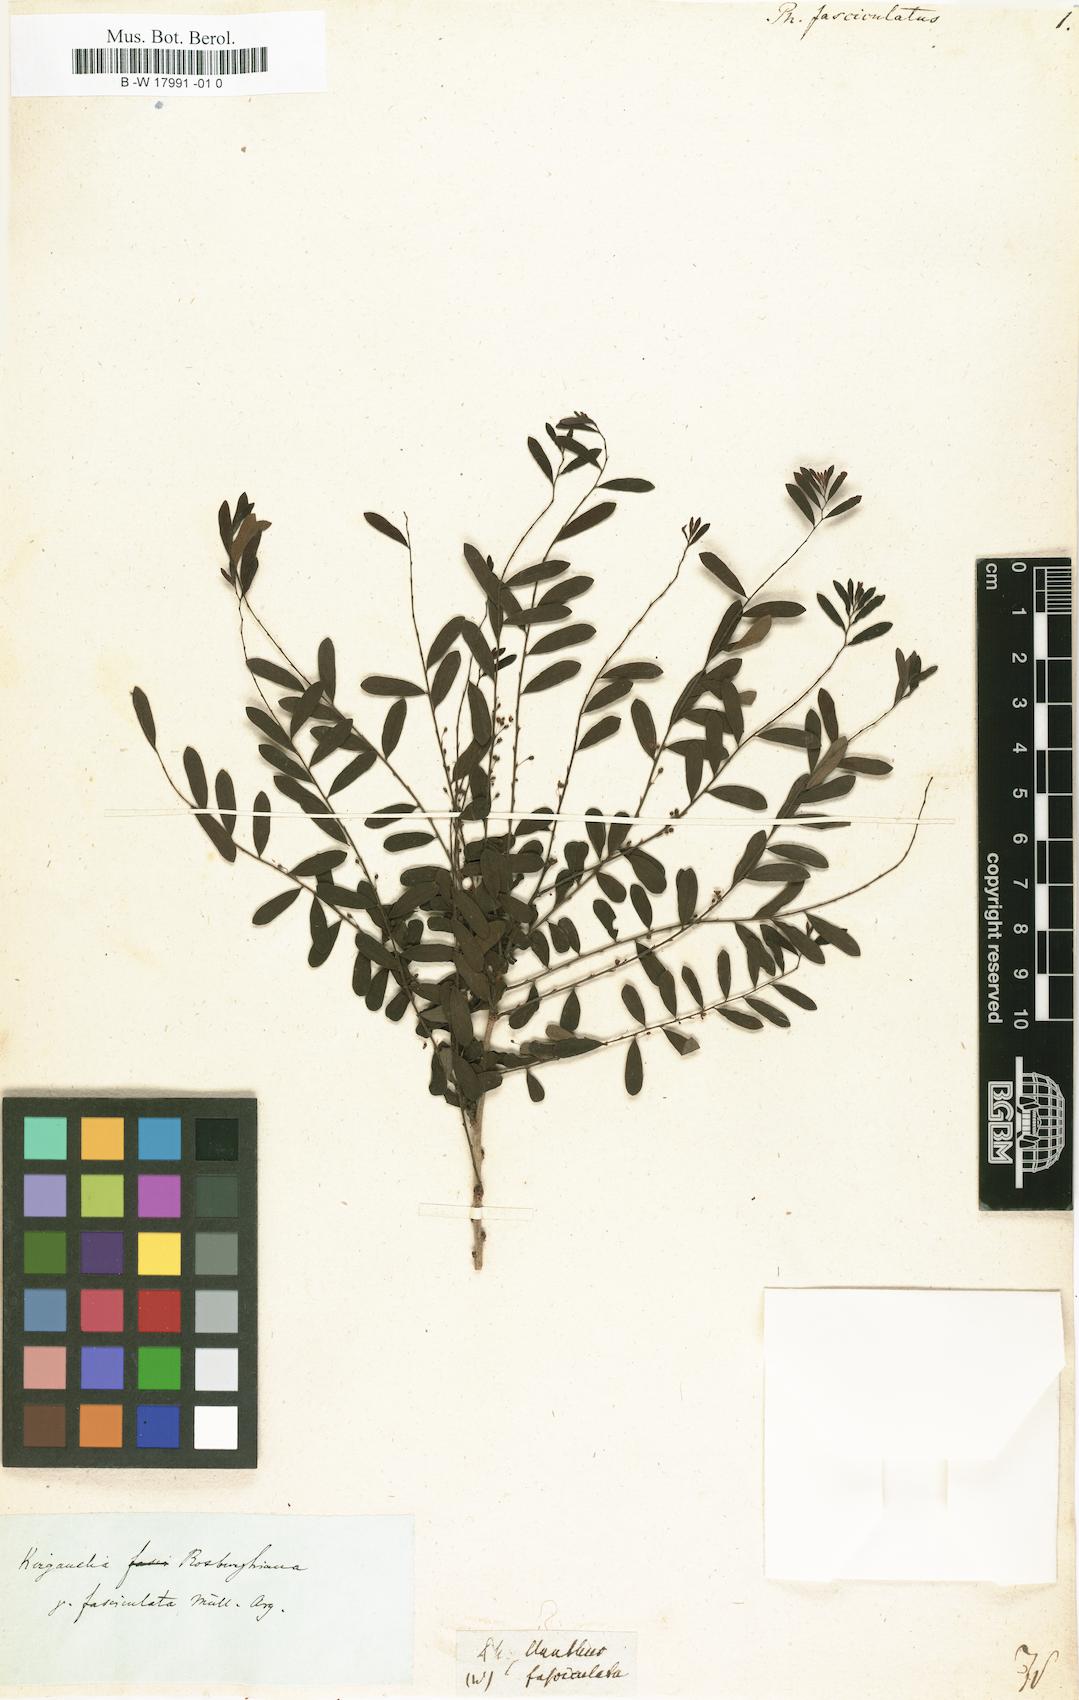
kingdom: Plantae
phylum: Tracheophyta
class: Magnoliopsida
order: Malpighiales
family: Phyllanthaceae
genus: Phyllanthus
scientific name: Phyllanthus
